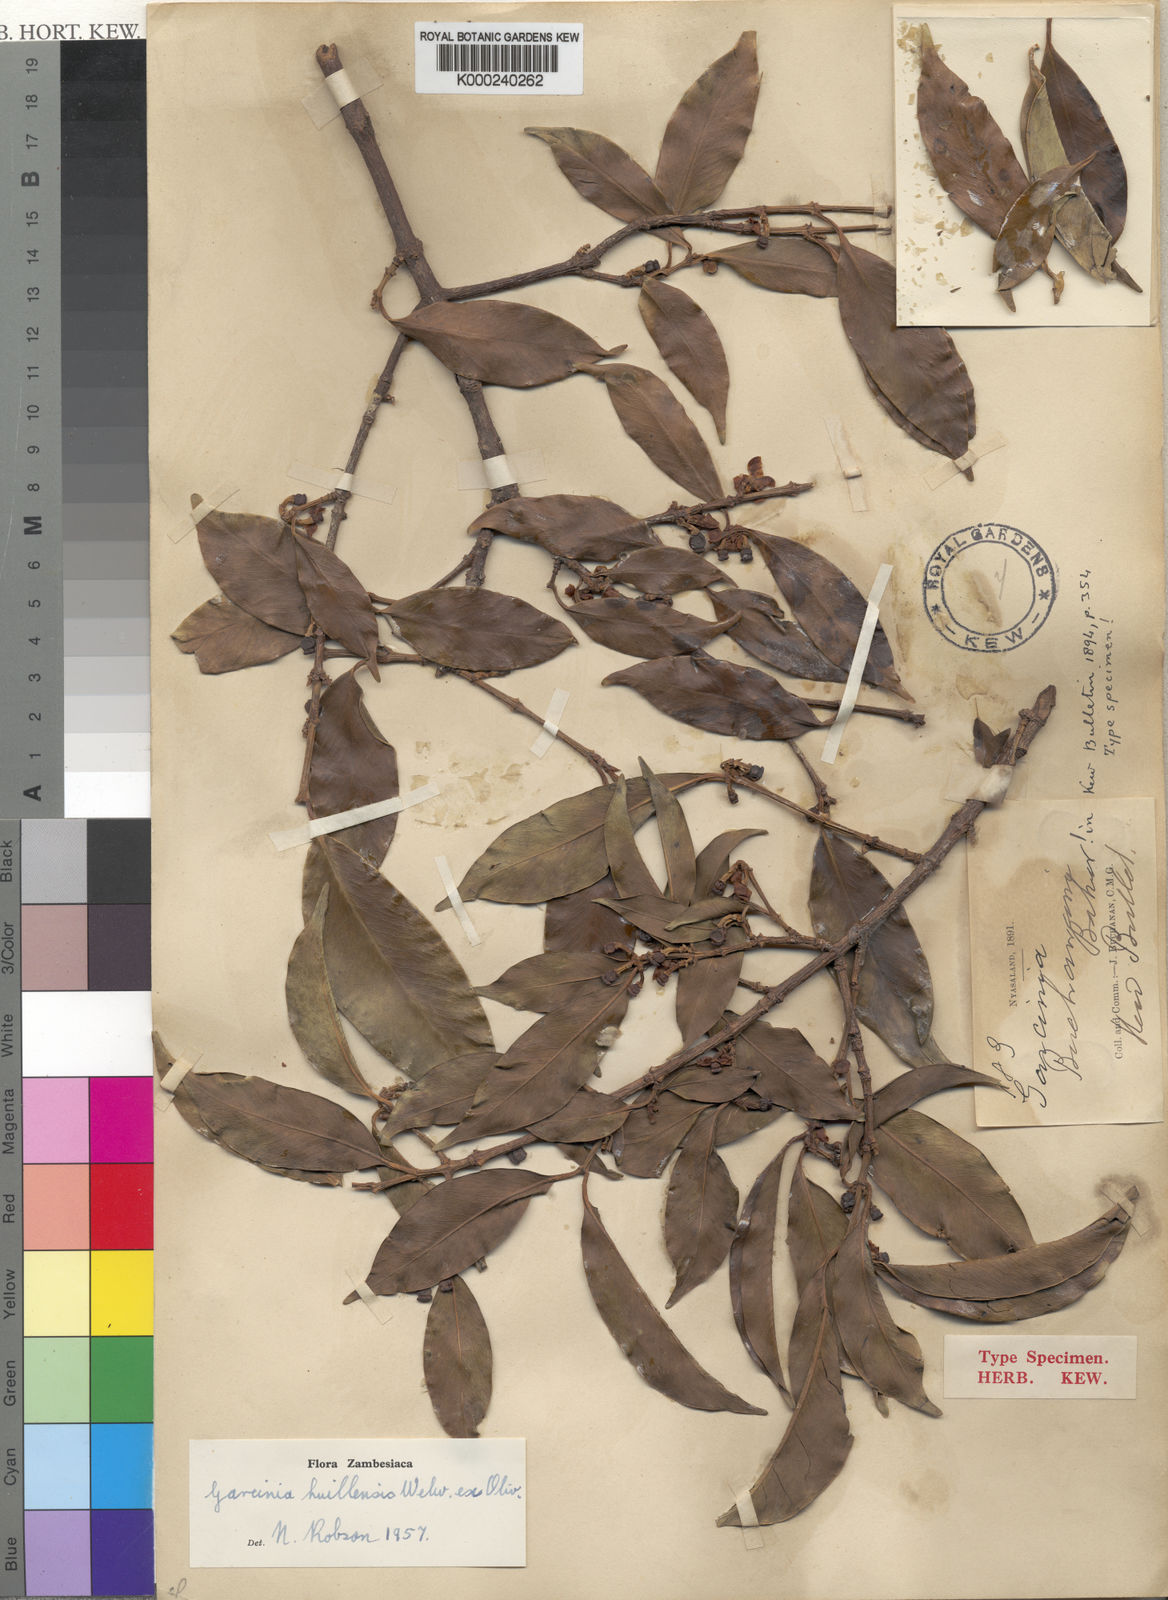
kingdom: Plantae
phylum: Tracheophyta
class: Magnoliopsida
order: Malpighiales
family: Clusiaceae
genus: Garcinia
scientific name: Garcinia huillensis
